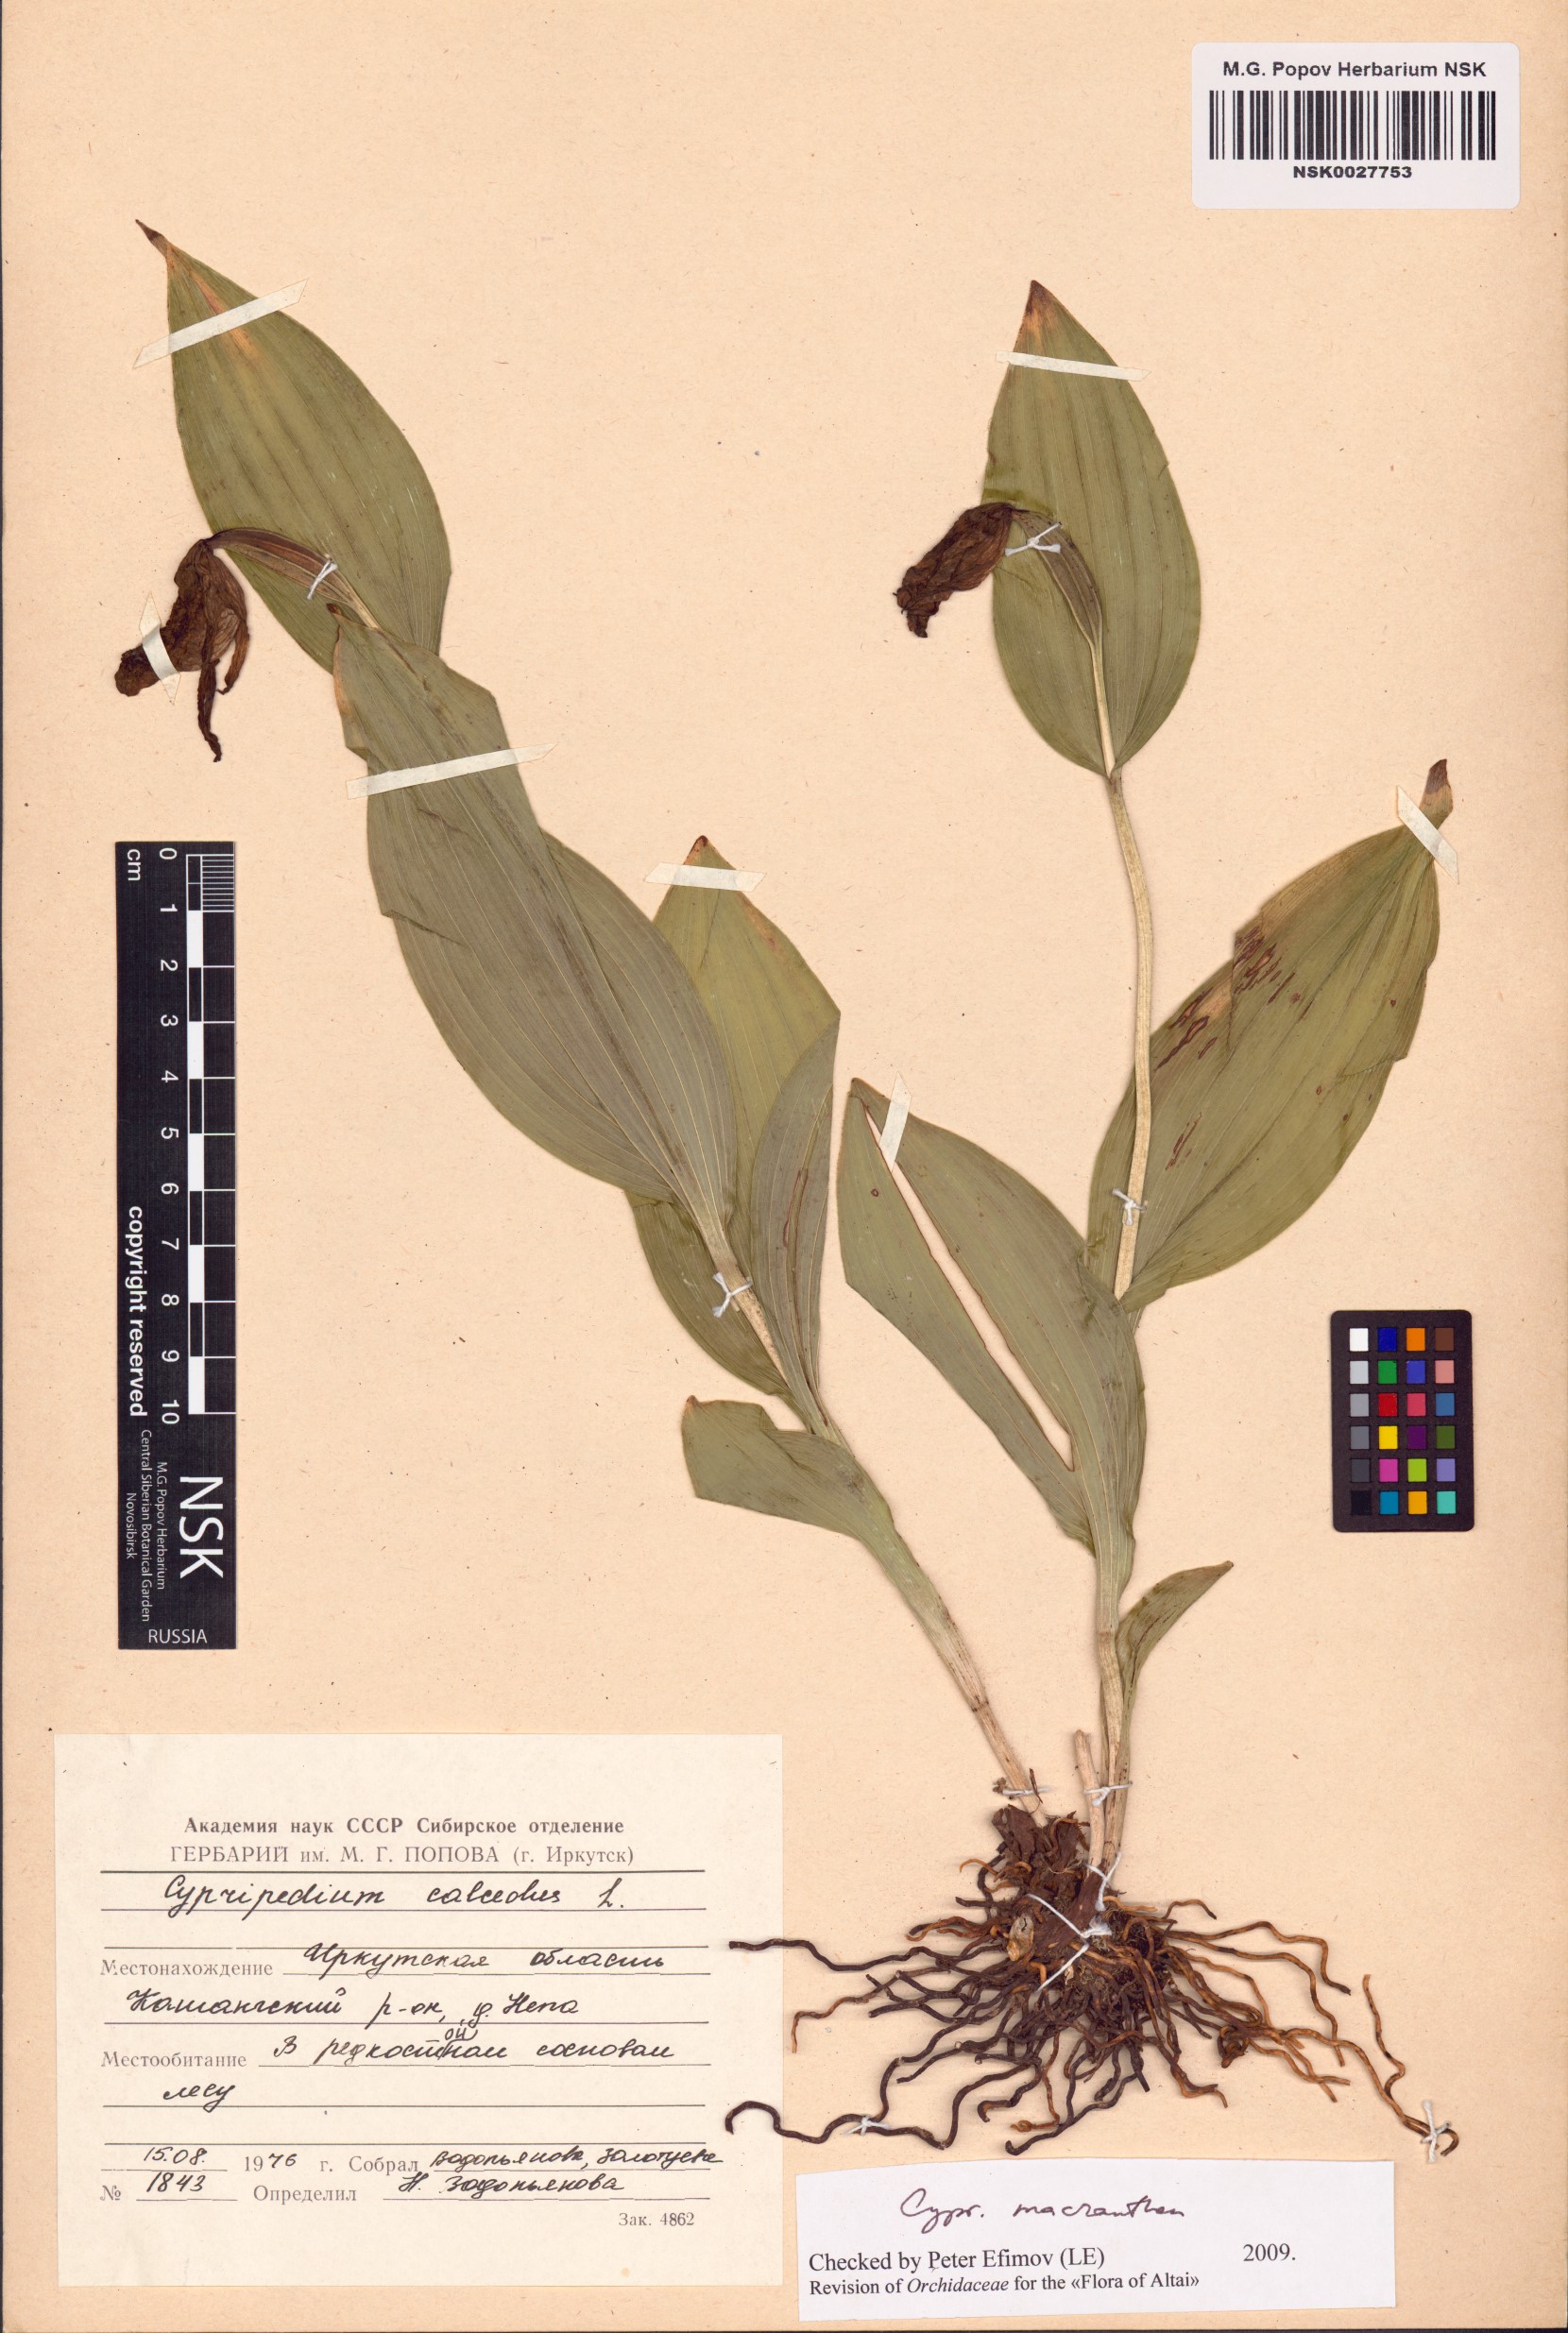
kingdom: Plantae
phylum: Tracheophyta
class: Liliopsida
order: Asparagales
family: Orchidaceae
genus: Cypripedium
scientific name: Cypripedium macranthos
